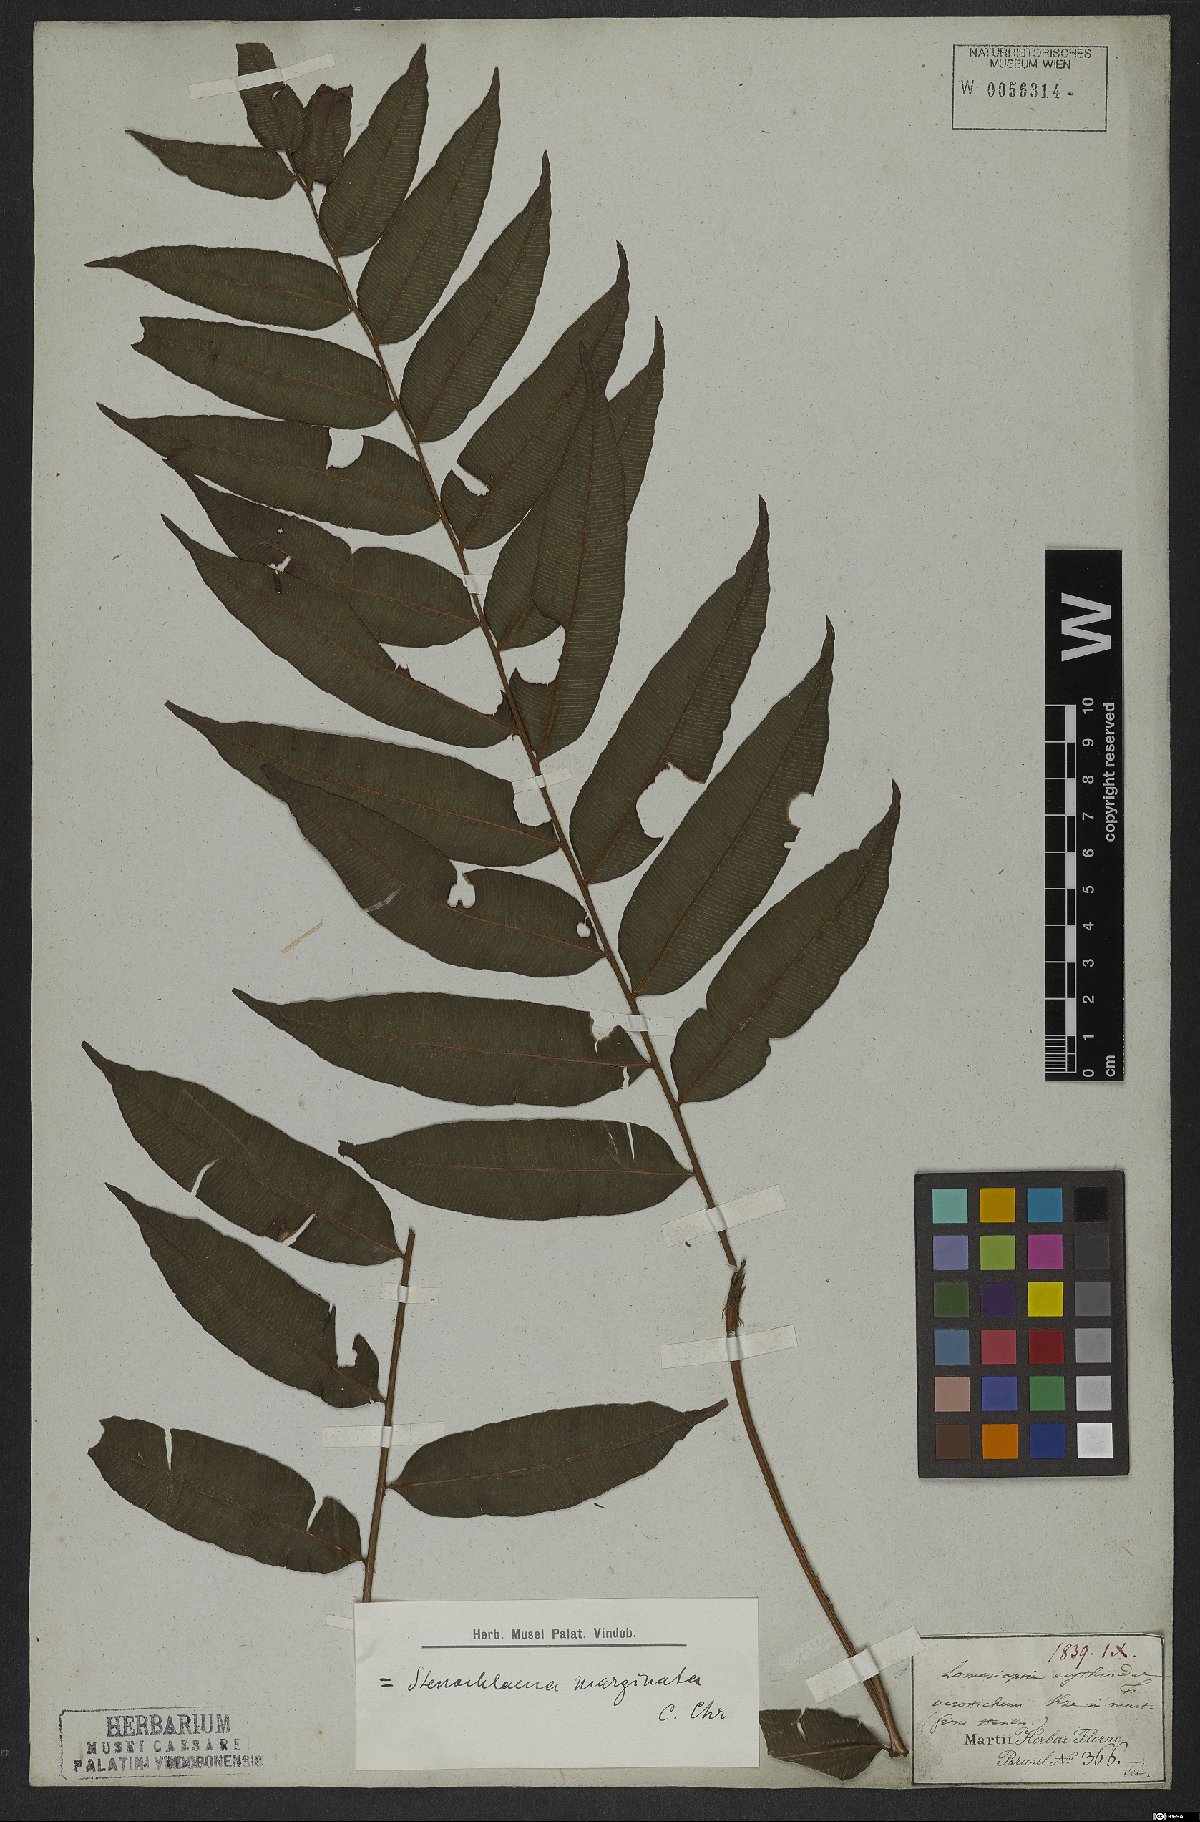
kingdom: Plantae
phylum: Tracheophyta
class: Polypodiopsida
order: Polypodiales
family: Lomariopsidaceae
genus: Lomariopsis
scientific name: Lomariopsis marginata
